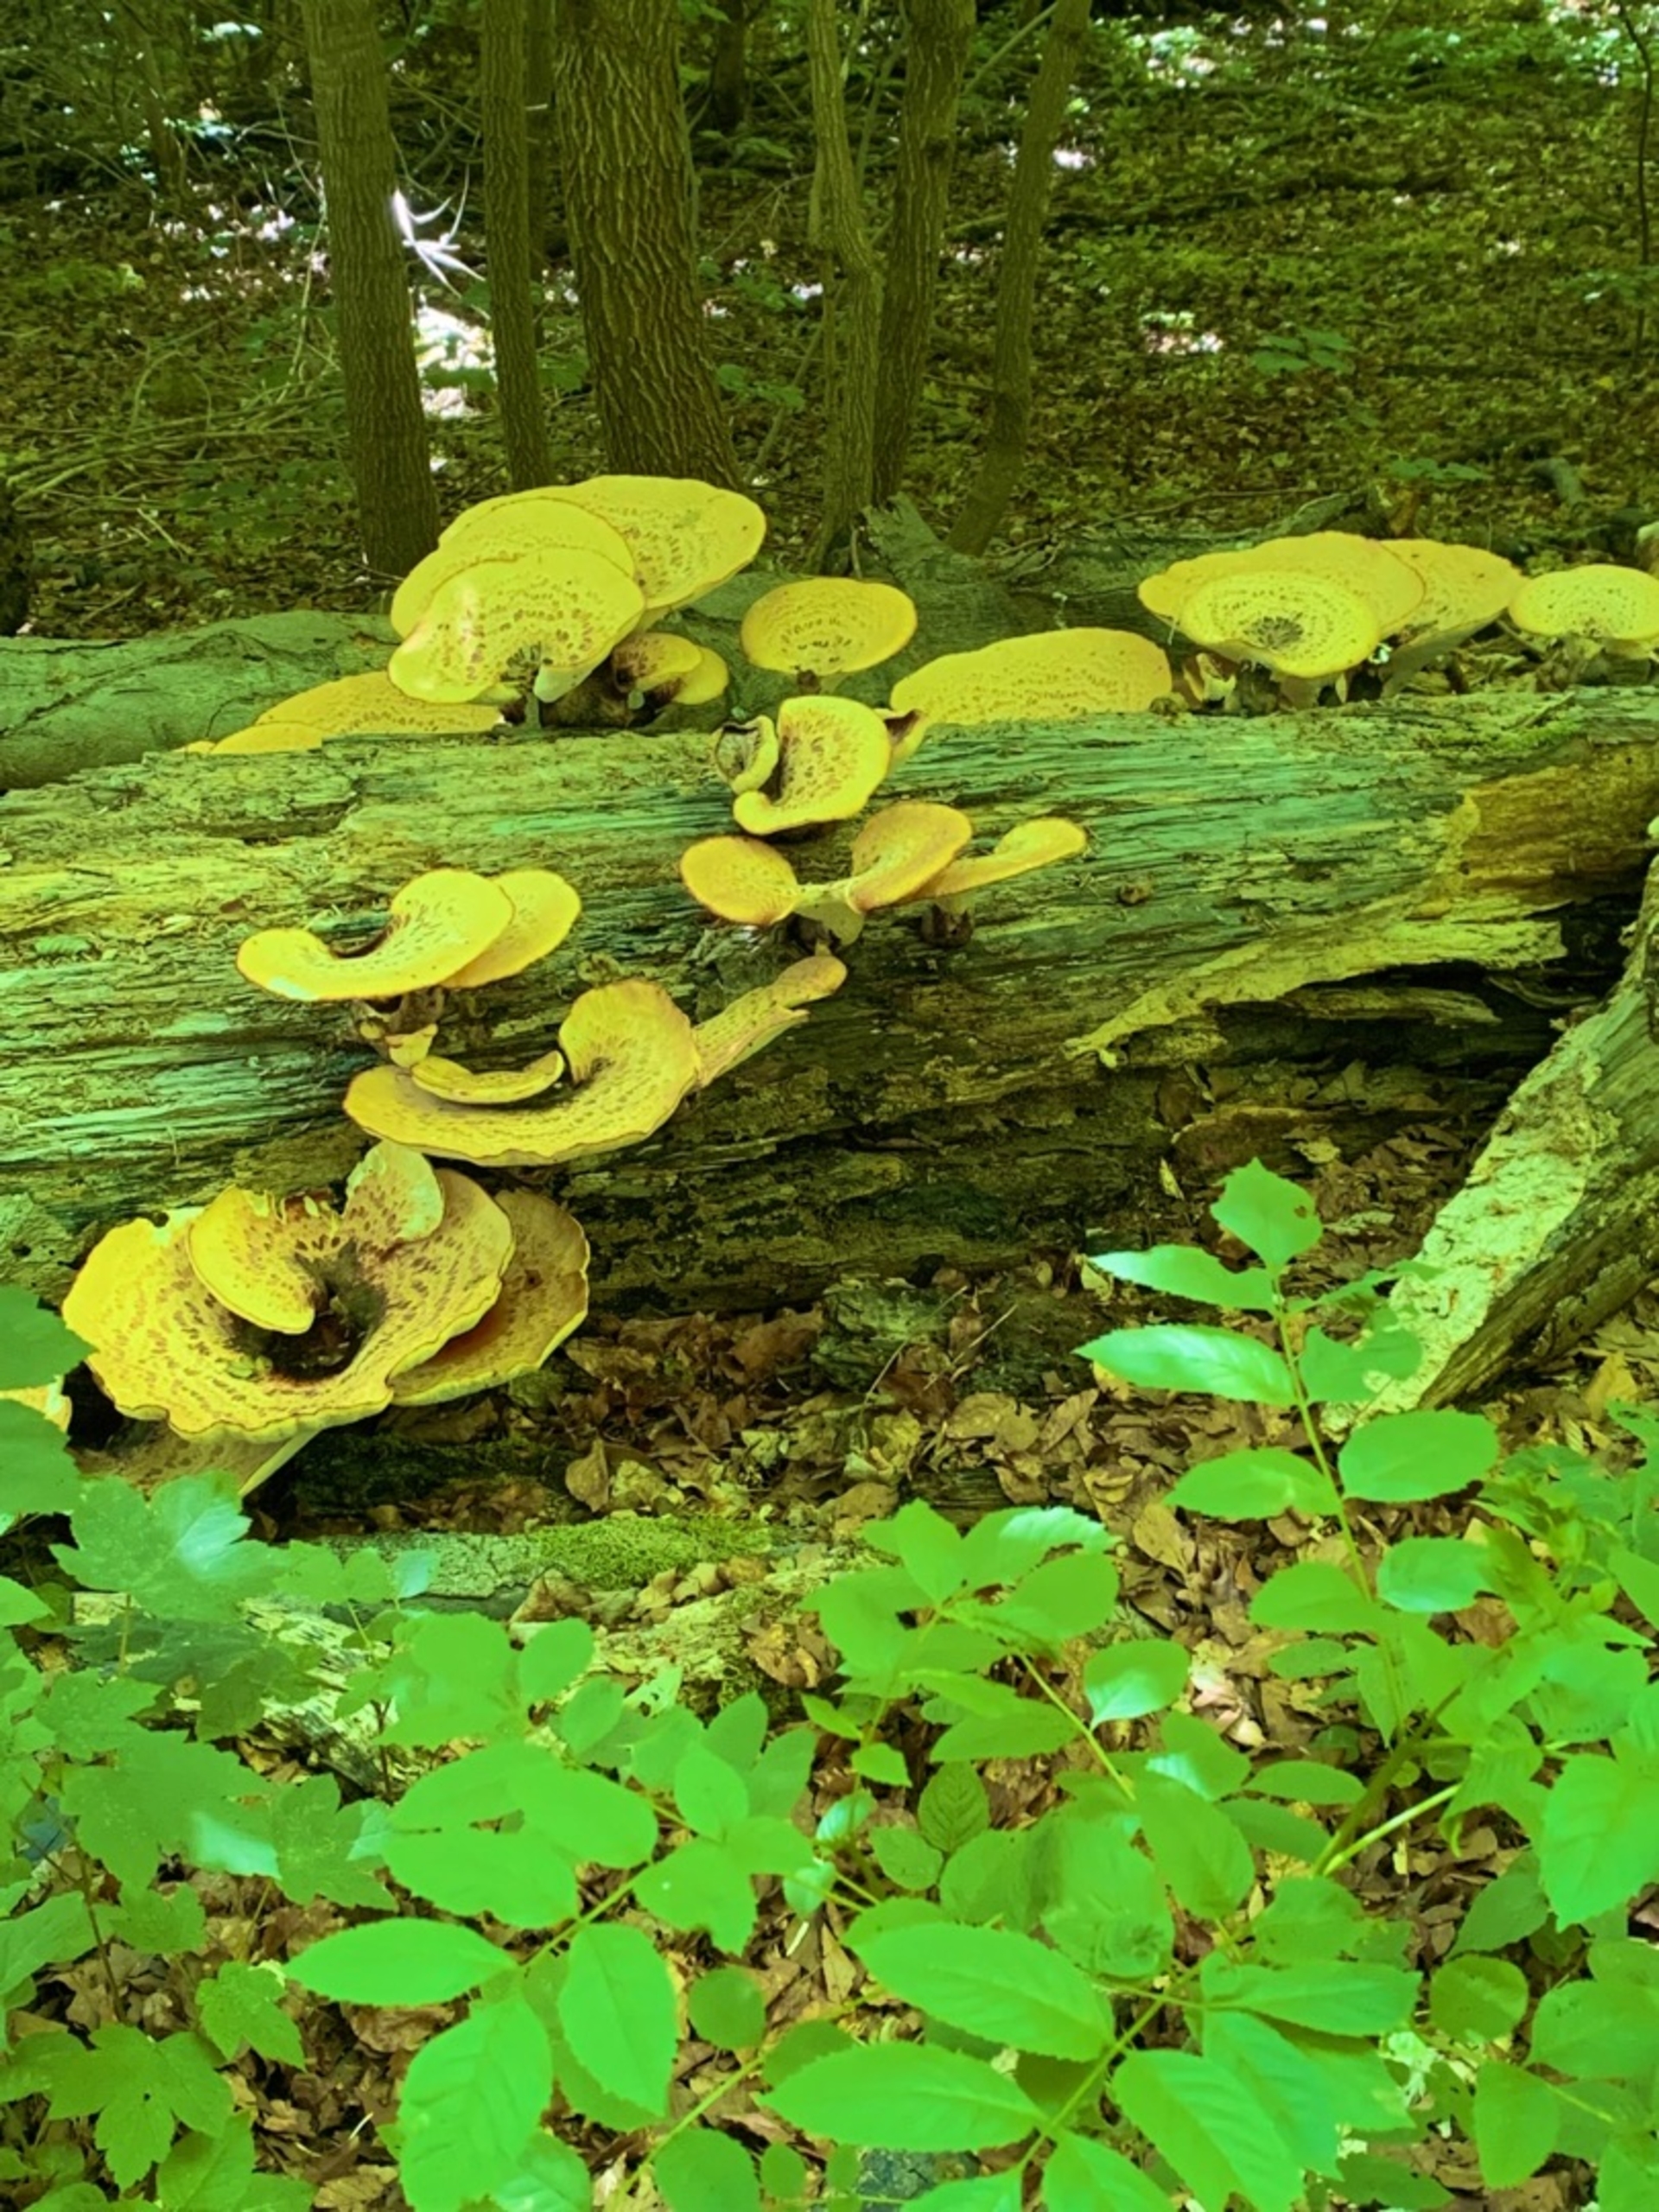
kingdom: Fungi
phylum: Basidiomycota
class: Agaricomycetes
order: Polyporales
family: Polyporaceae
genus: Cerioporus
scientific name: Cerioporus squamosus
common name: Skællet stilkporesvamp
